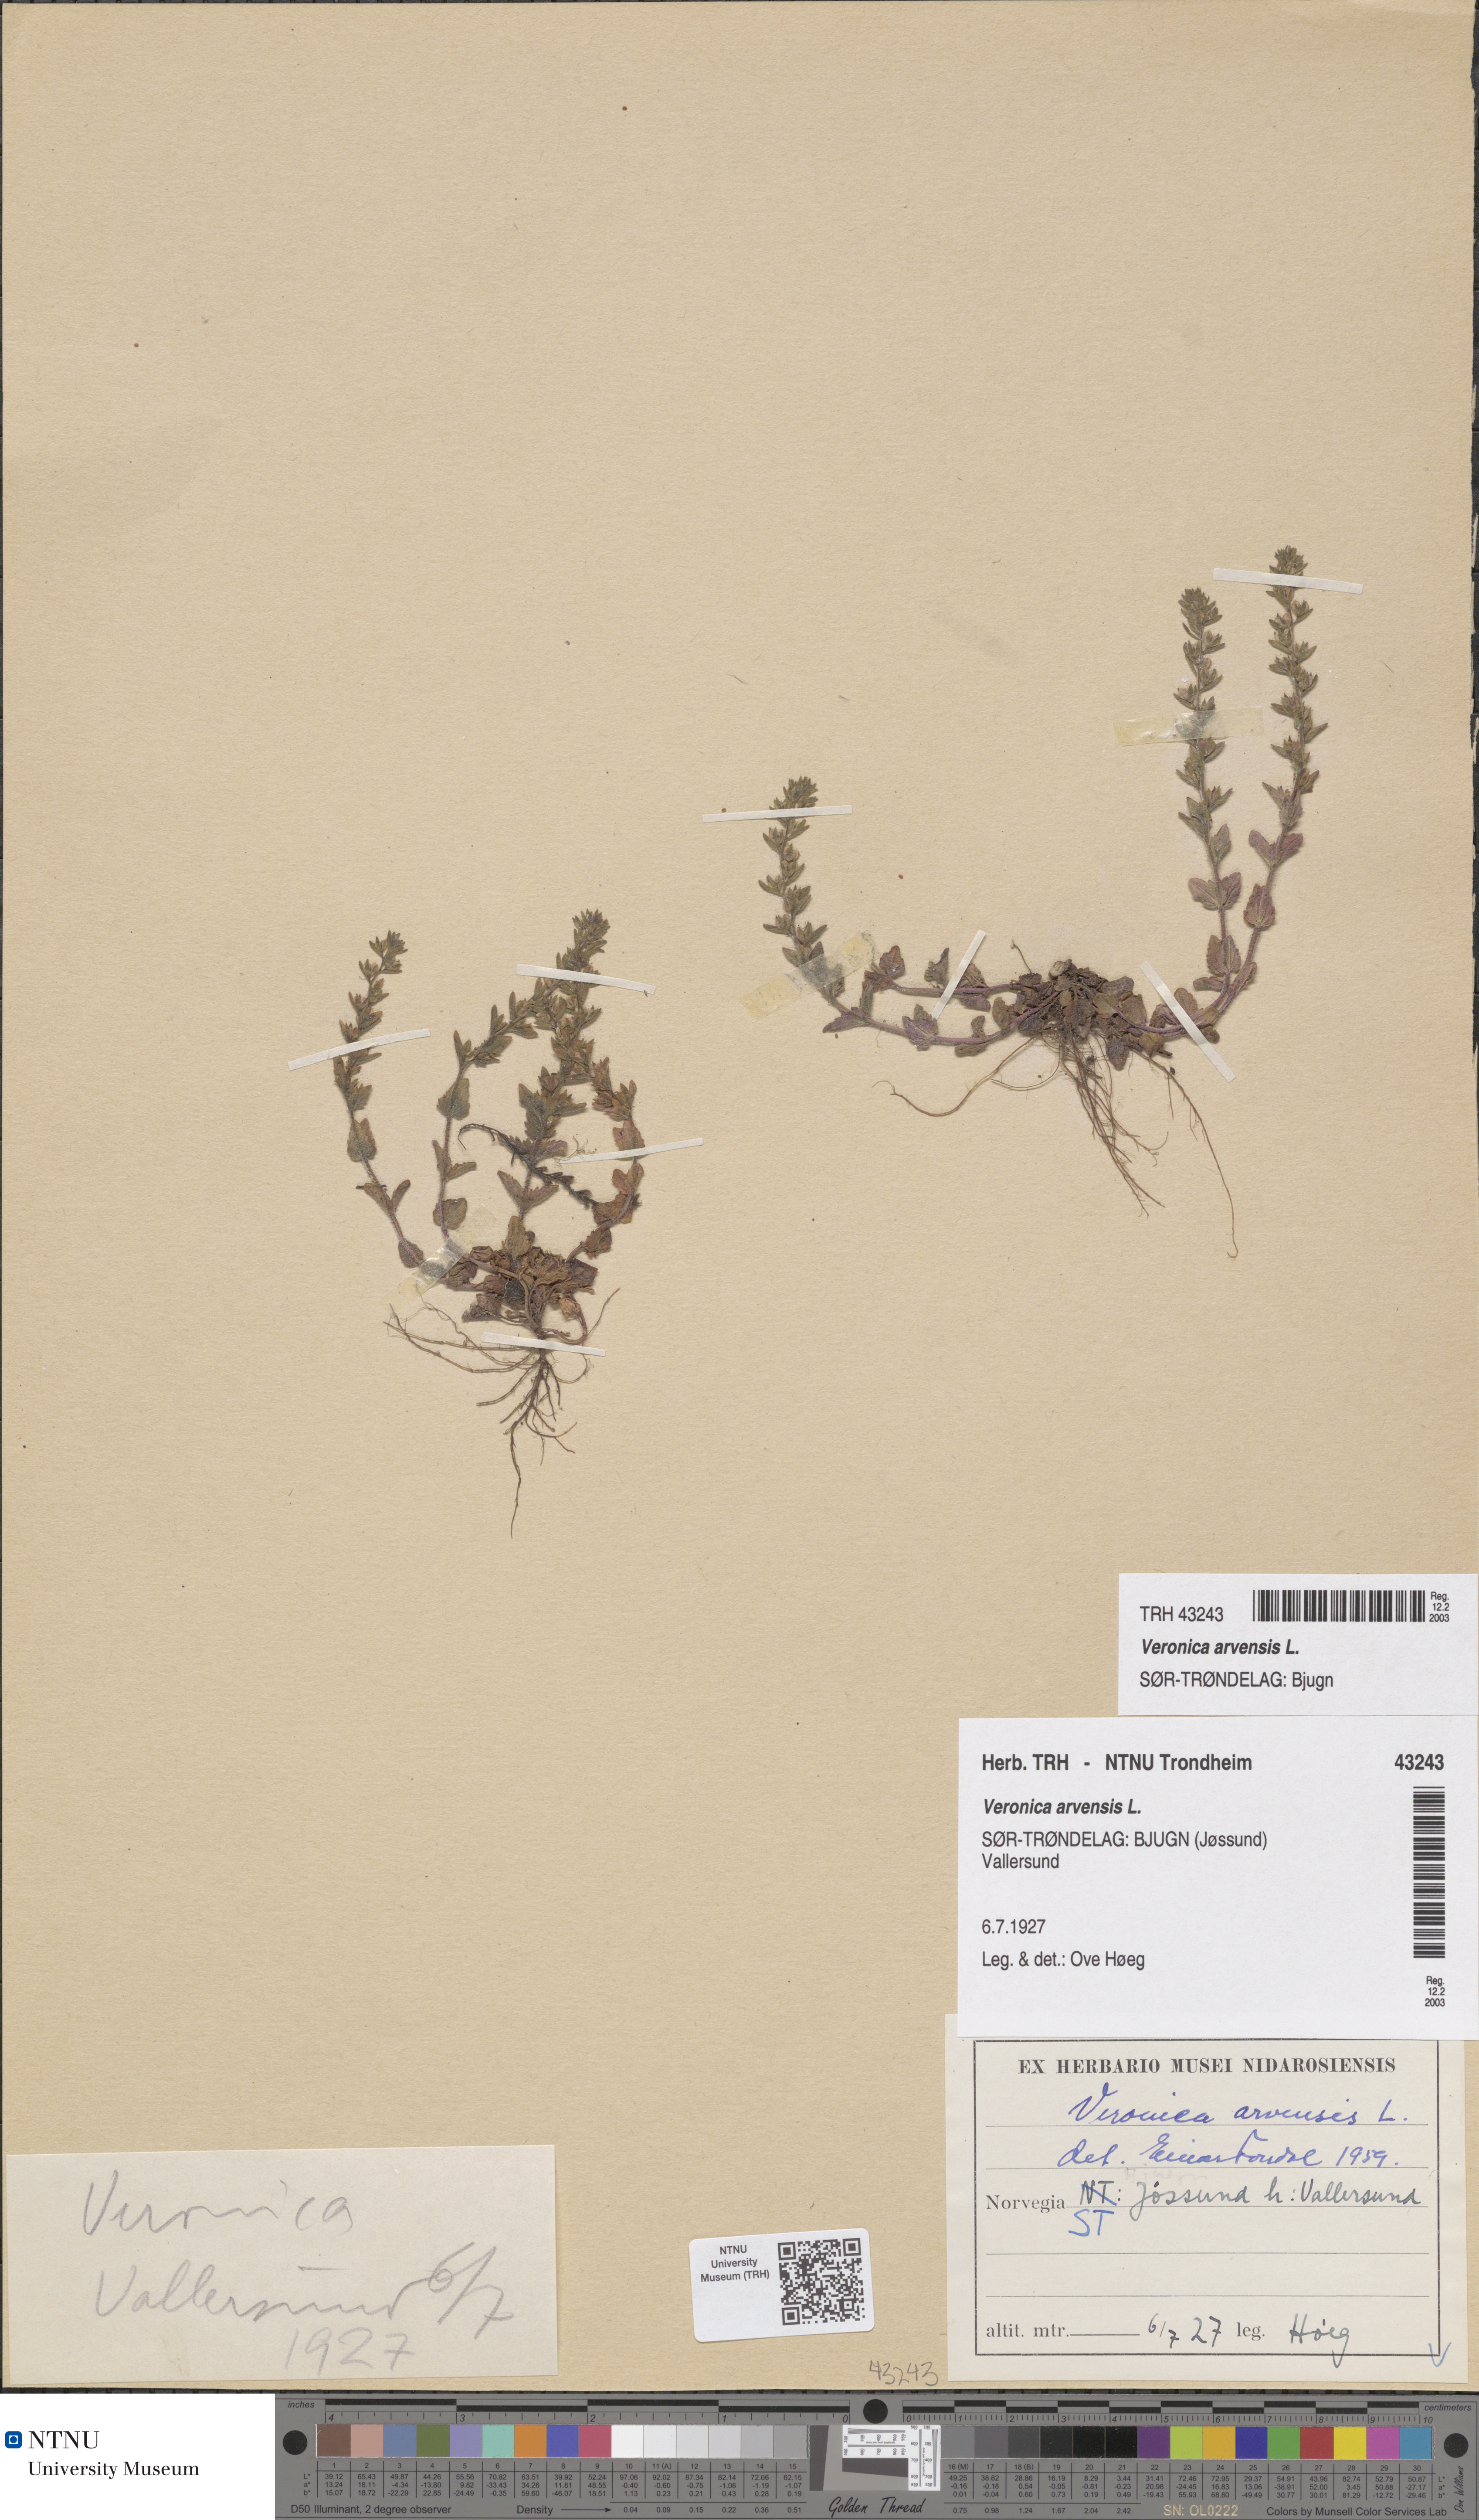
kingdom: Plantae
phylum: Tracheophyta
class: Magnoliopsida
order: Lamiales
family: Plantaginaceae
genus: Veronica
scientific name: Veronica arvensis
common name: Corn speedwell
